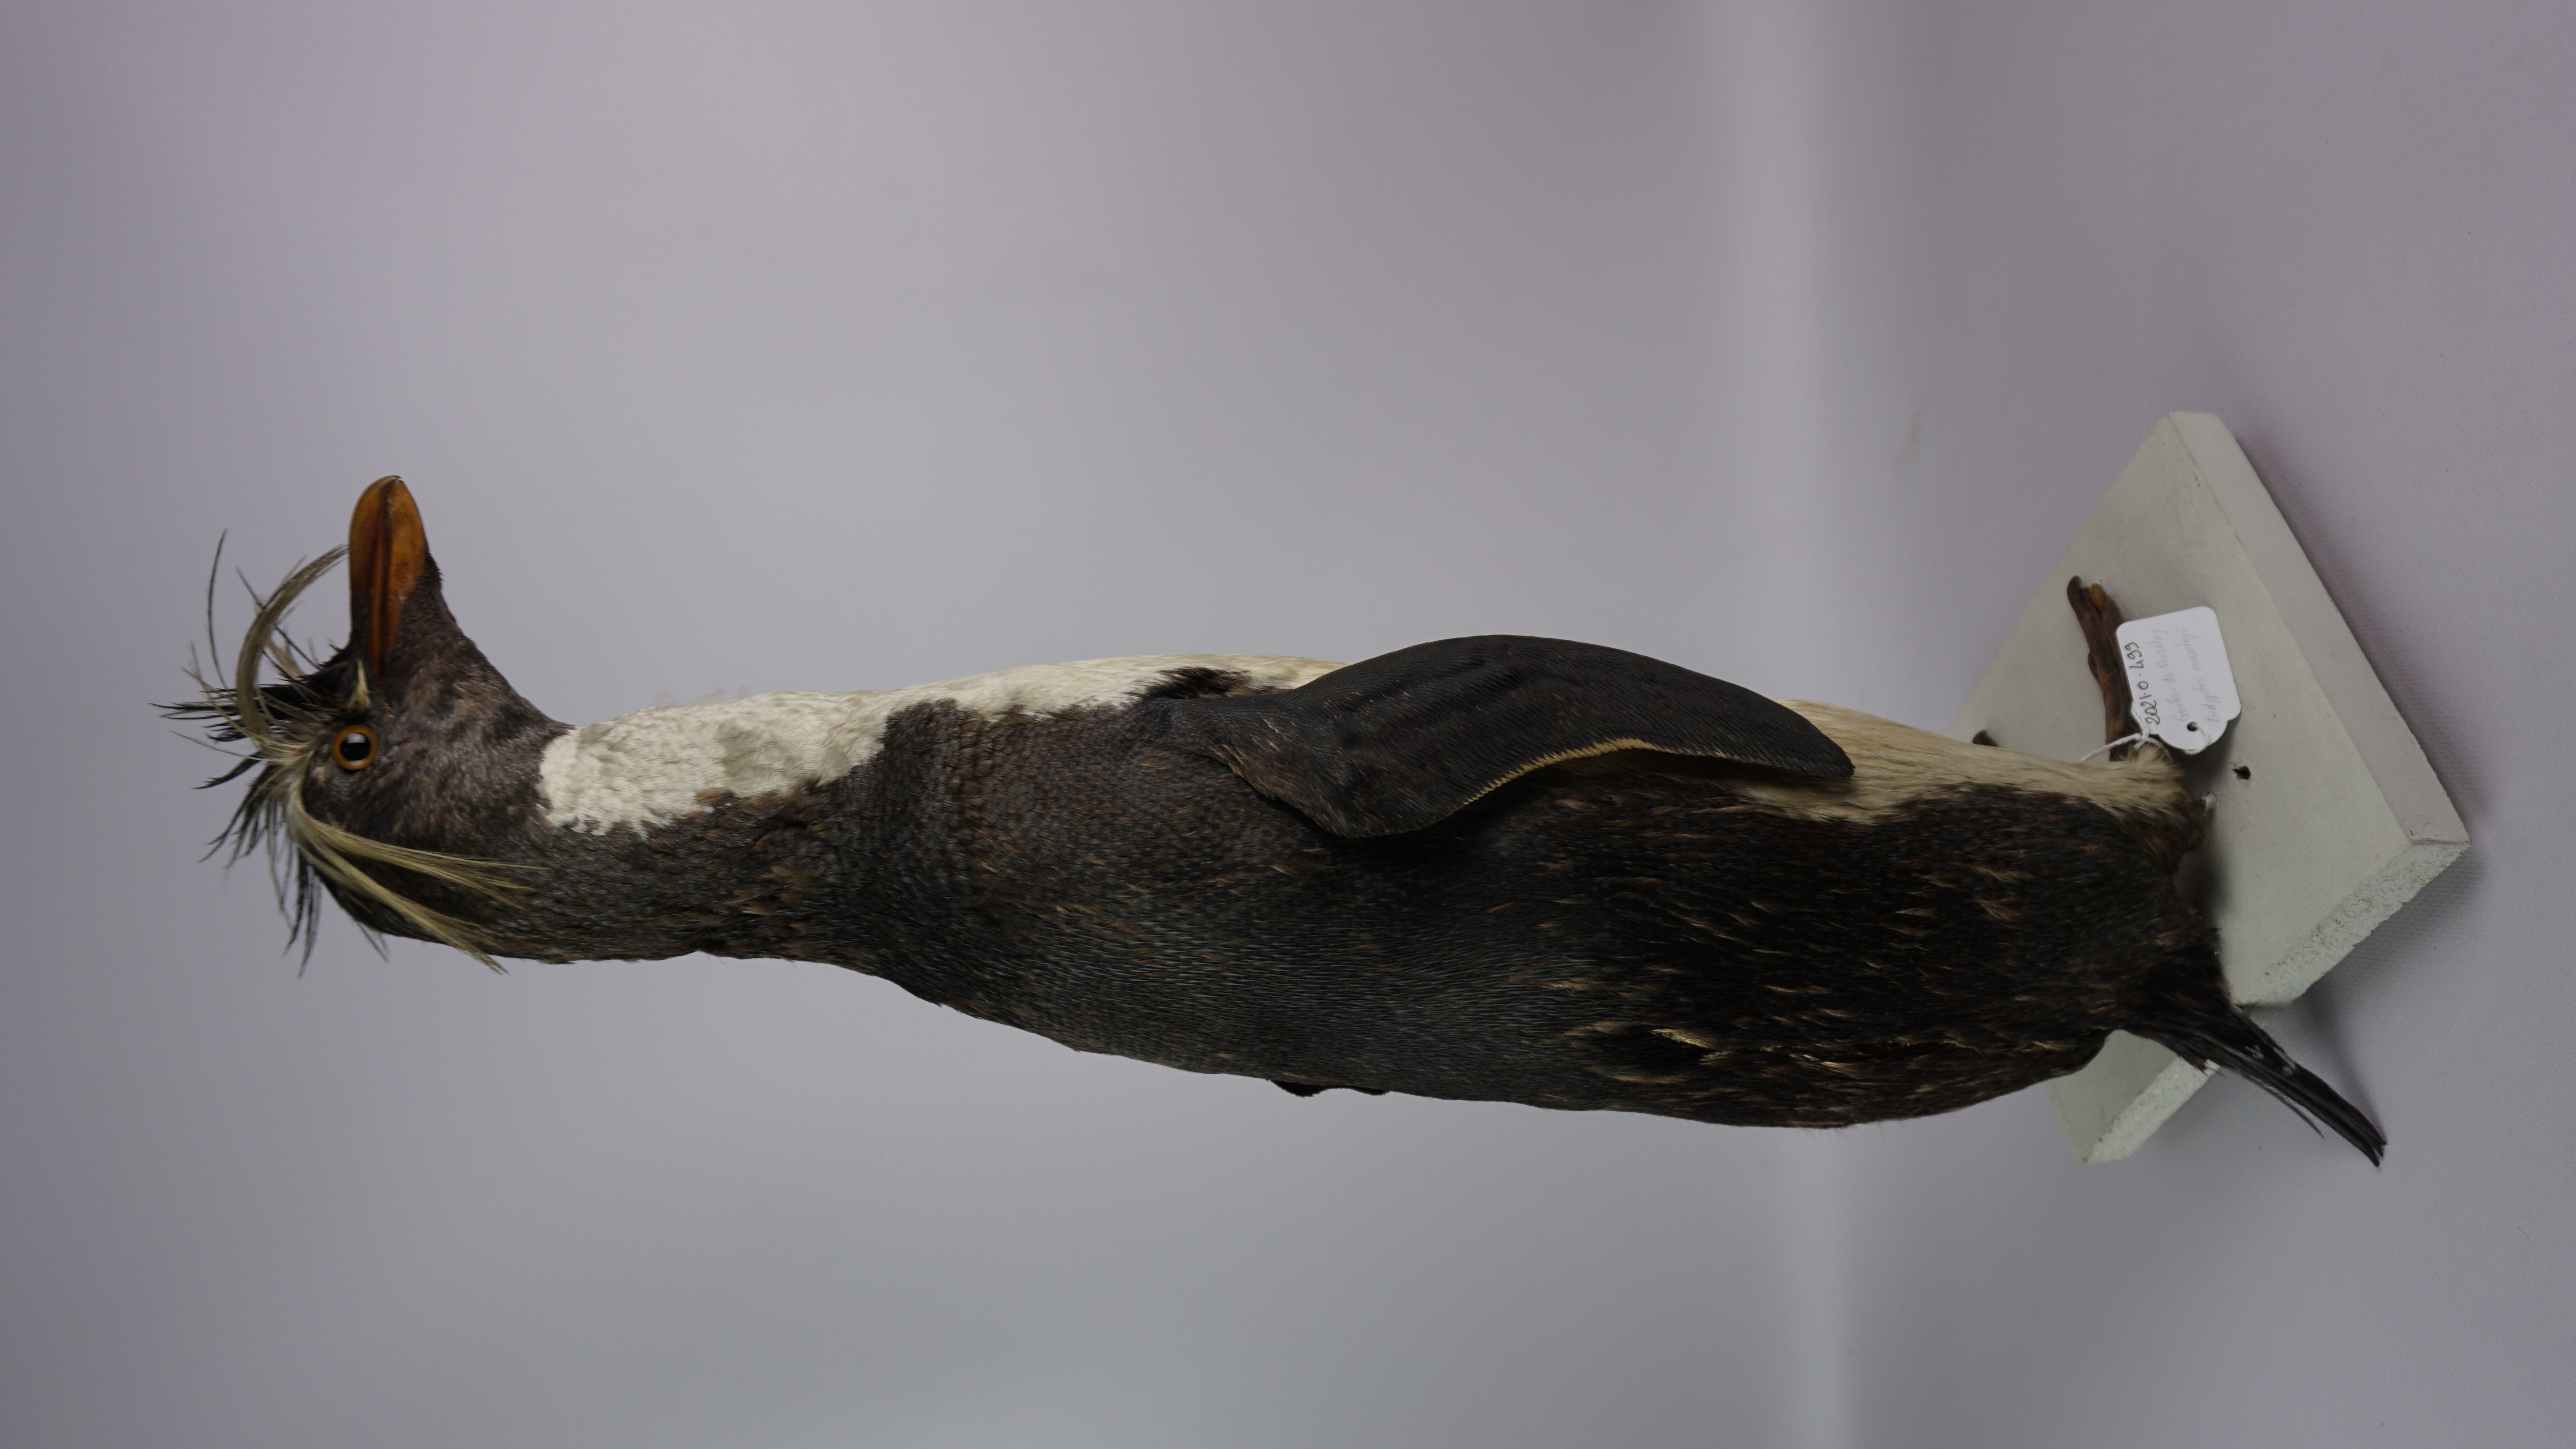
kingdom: Animalia
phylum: Chordata
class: Aves
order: Sphenisciformes
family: Spheniscidae
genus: Eudyptes
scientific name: Eudyptes moseleyi
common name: Northern rockhopper penguin
